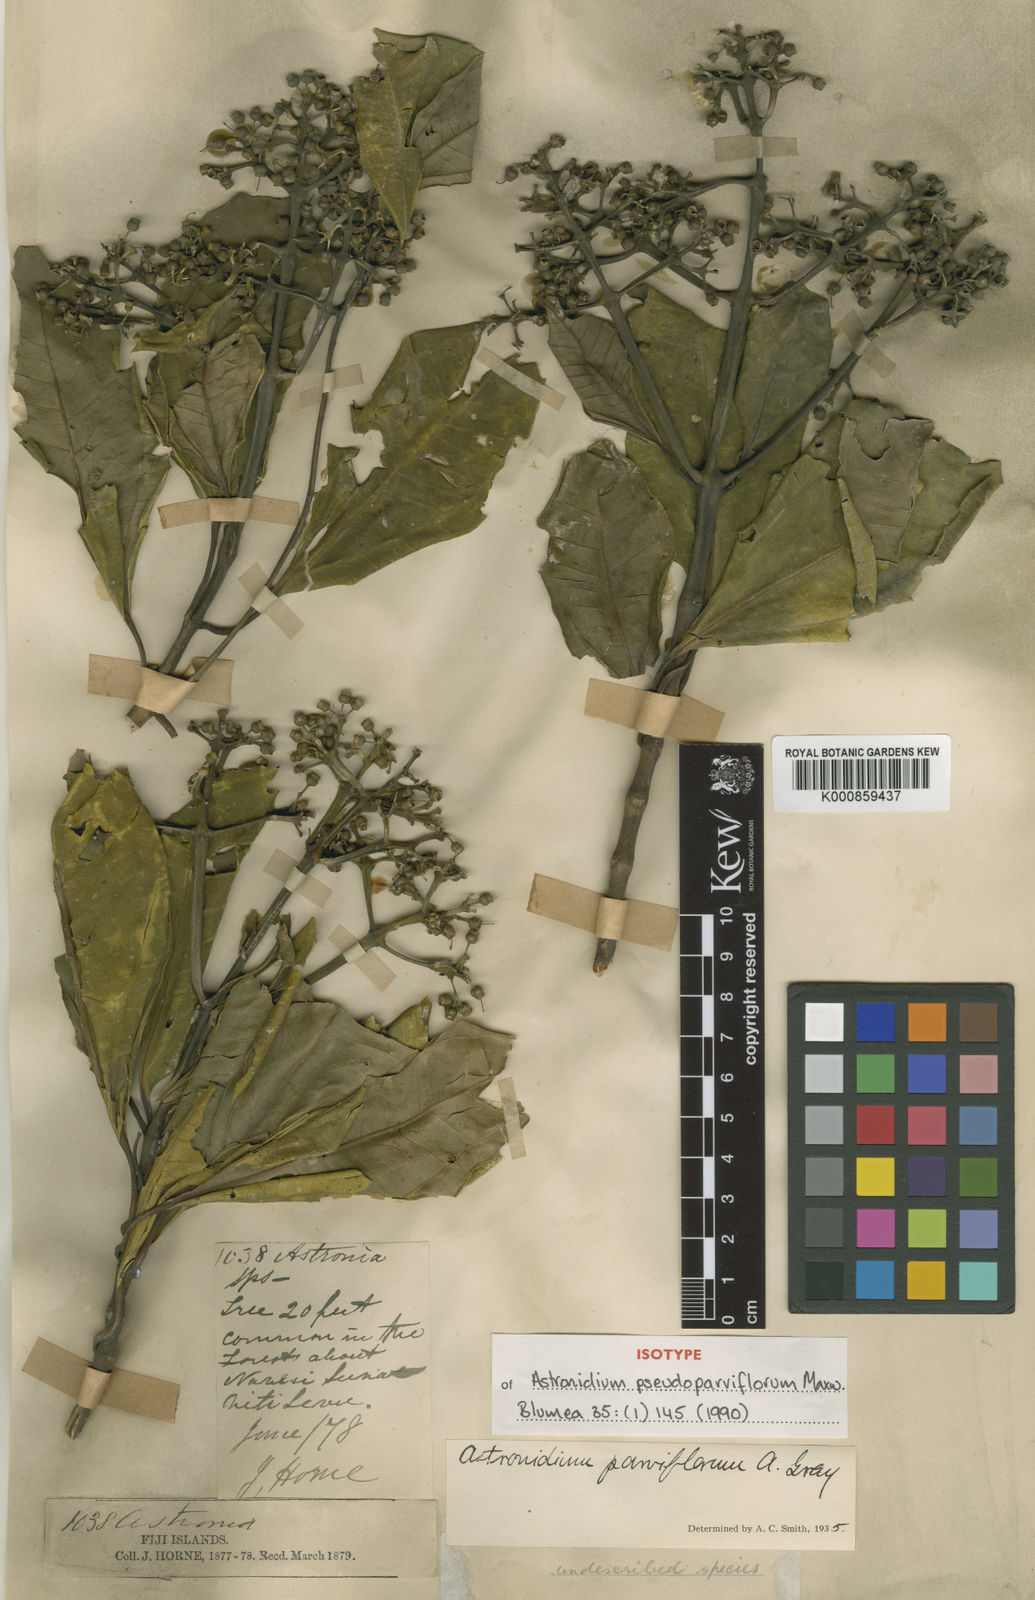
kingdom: Plantae
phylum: Tracheophyta
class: Magnoliopsida
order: Myrtales
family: Melastomataceae
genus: Astronidium
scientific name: Astronidium pseudoparviflorum
